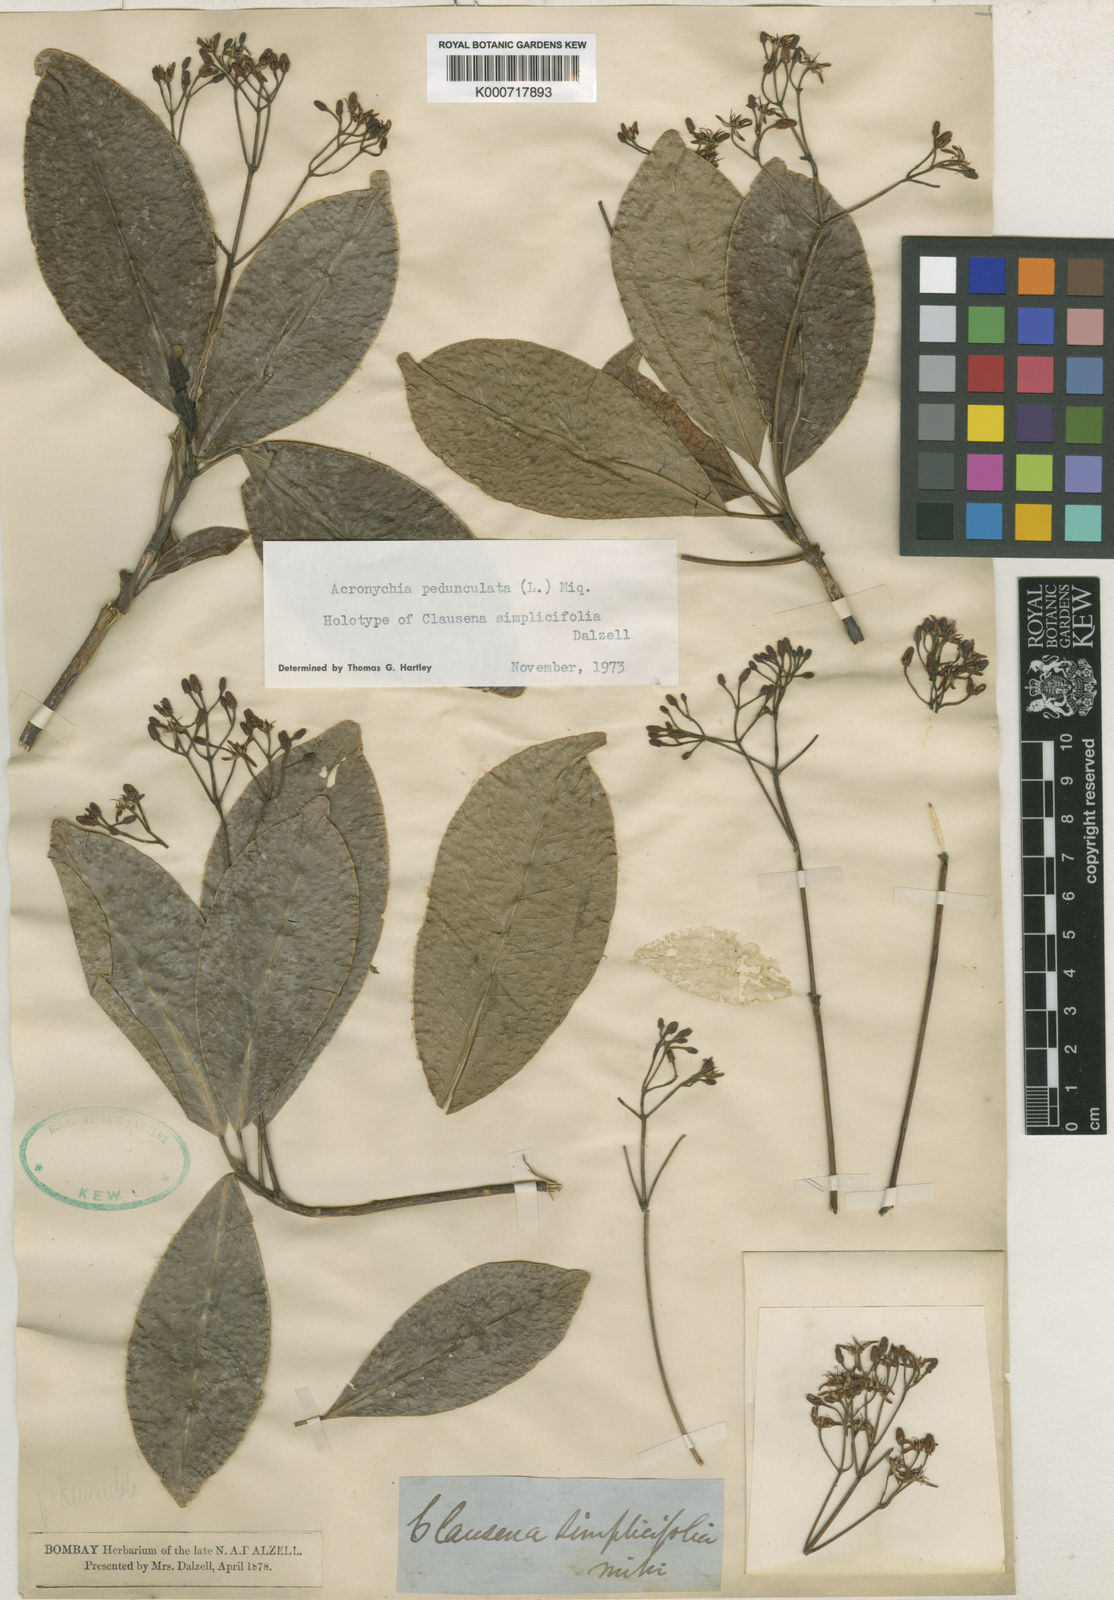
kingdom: Plantae
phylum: Tracheophyta
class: Magnoliopsida
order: Sapindales
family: Rutaceae
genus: Acronychia
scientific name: Acronychia pedunculata
